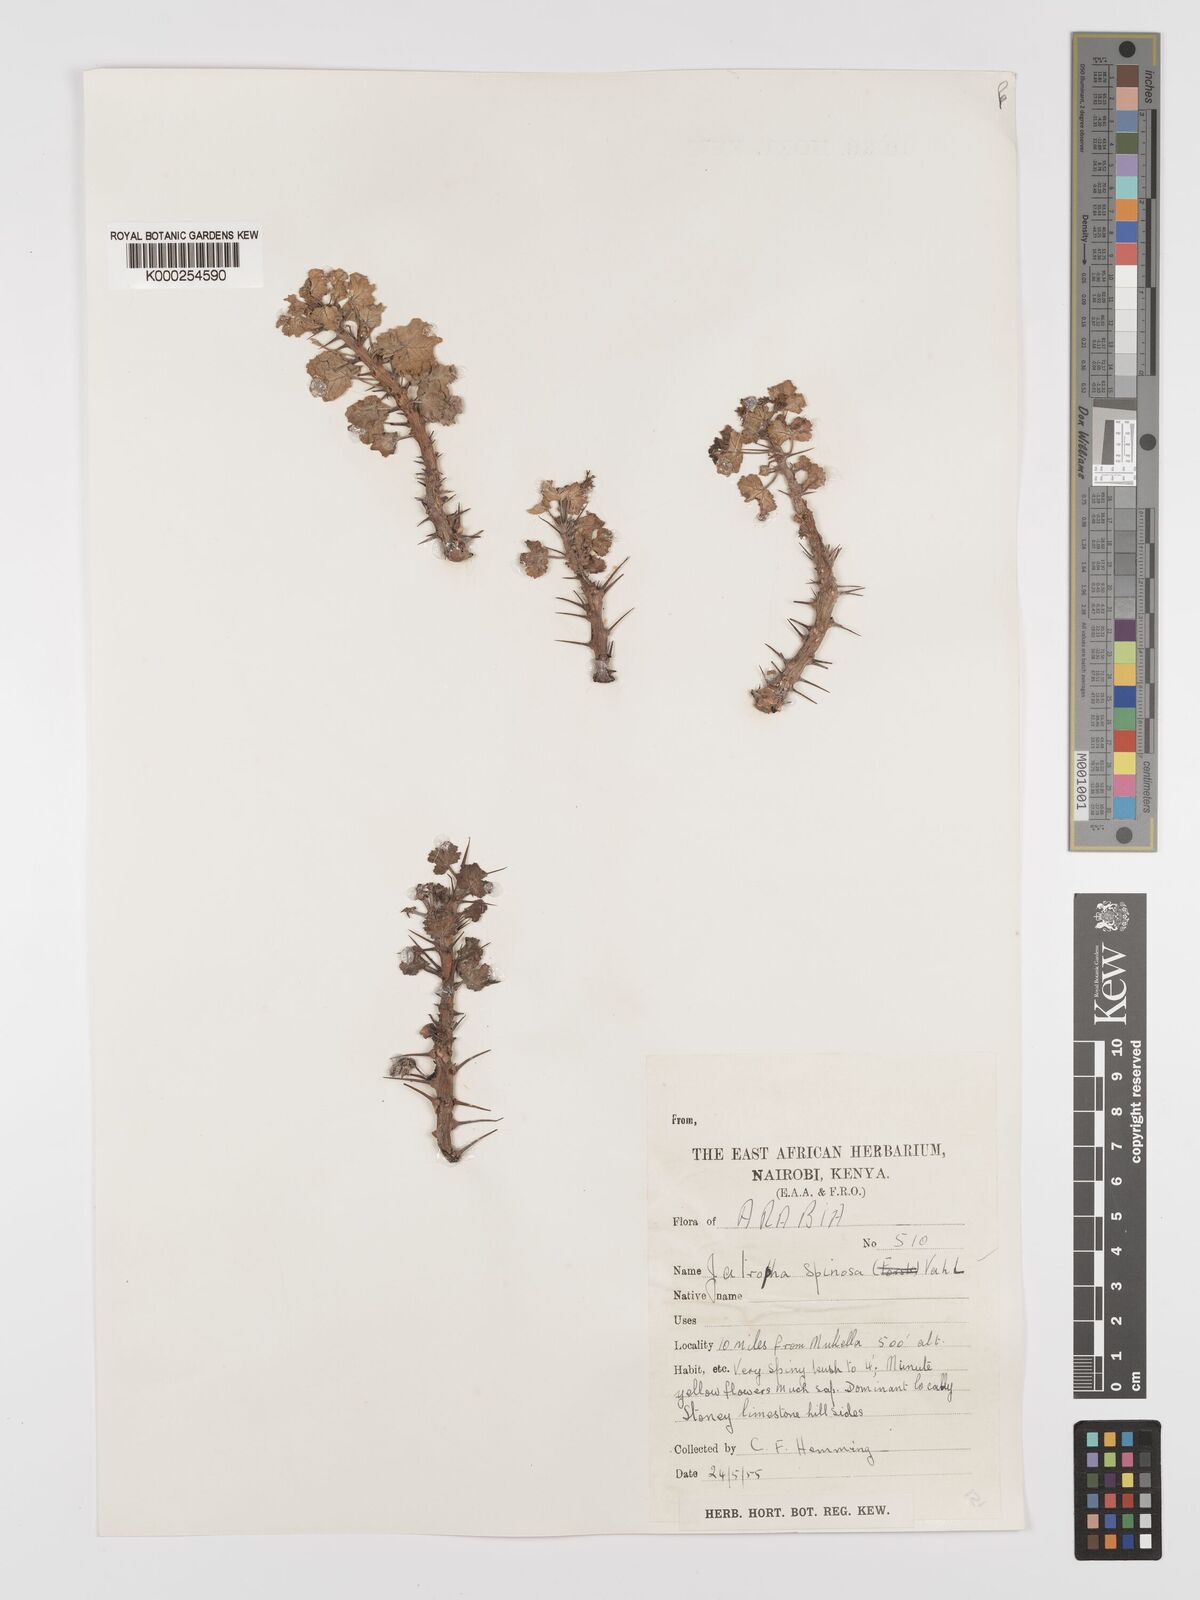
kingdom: Plantae
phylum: Tracheophyta
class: Magnoliopsida
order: Malpighiales
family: Euphorbiaceae
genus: Jatropha
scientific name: Jatropha spinosa
